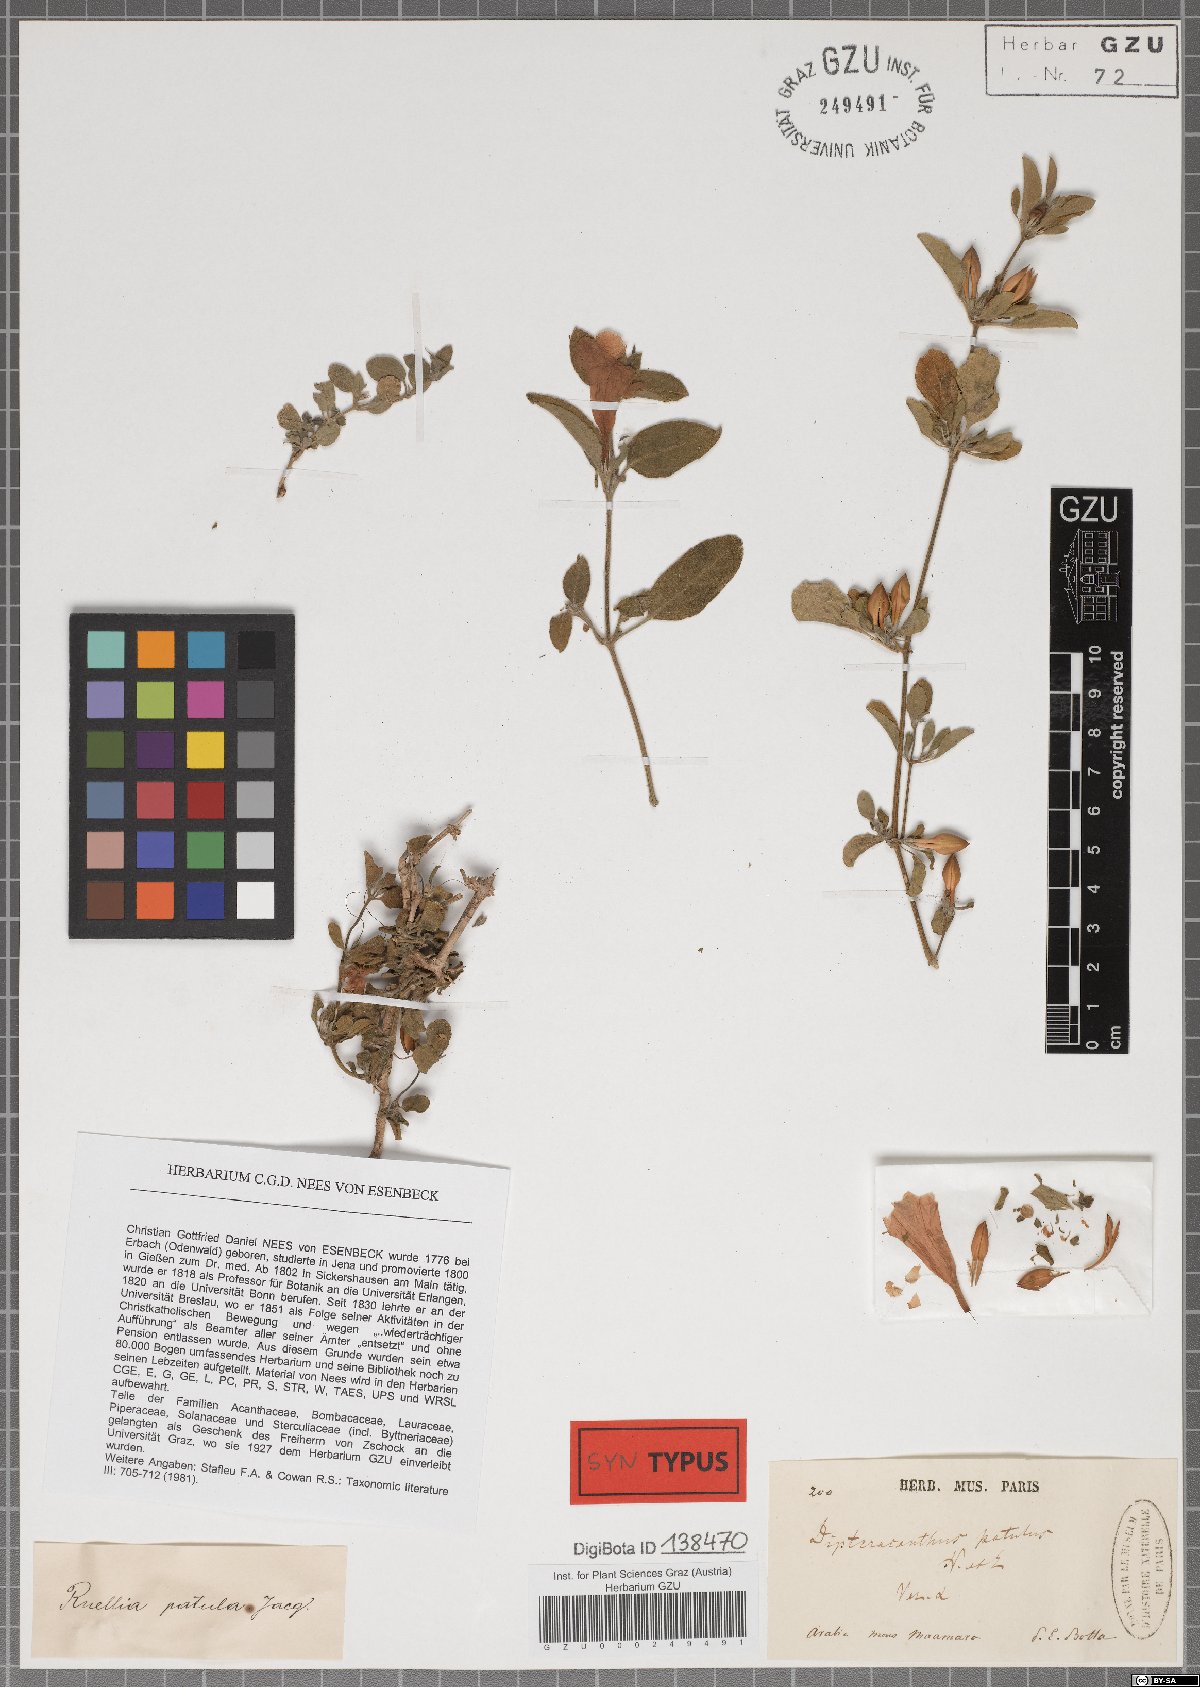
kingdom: Plantae
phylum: Tracheophyta
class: Magnoliopsida
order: Lamiales
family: Acanthaceae
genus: Ruellia
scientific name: Ruellia patula
